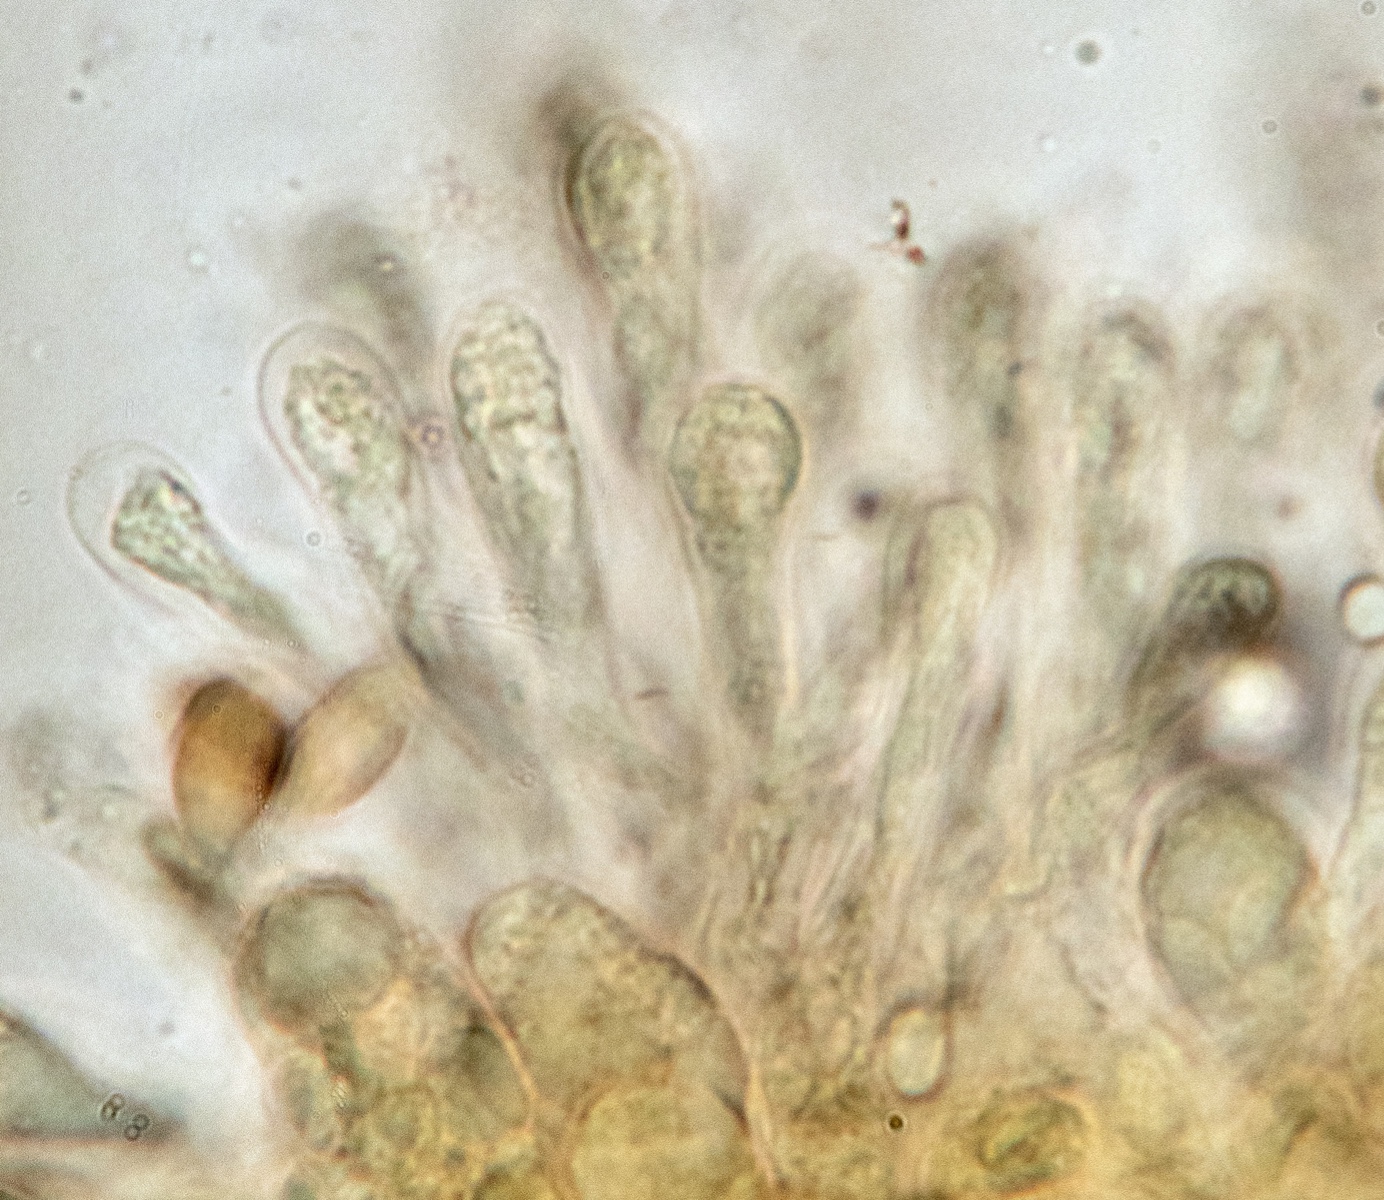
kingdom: Fungi
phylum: Basidiomycota
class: Agaricomycetes
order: Agaricales
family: Hymenogastraceae
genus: Hebeloma
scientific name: Hebeloma cavipes
